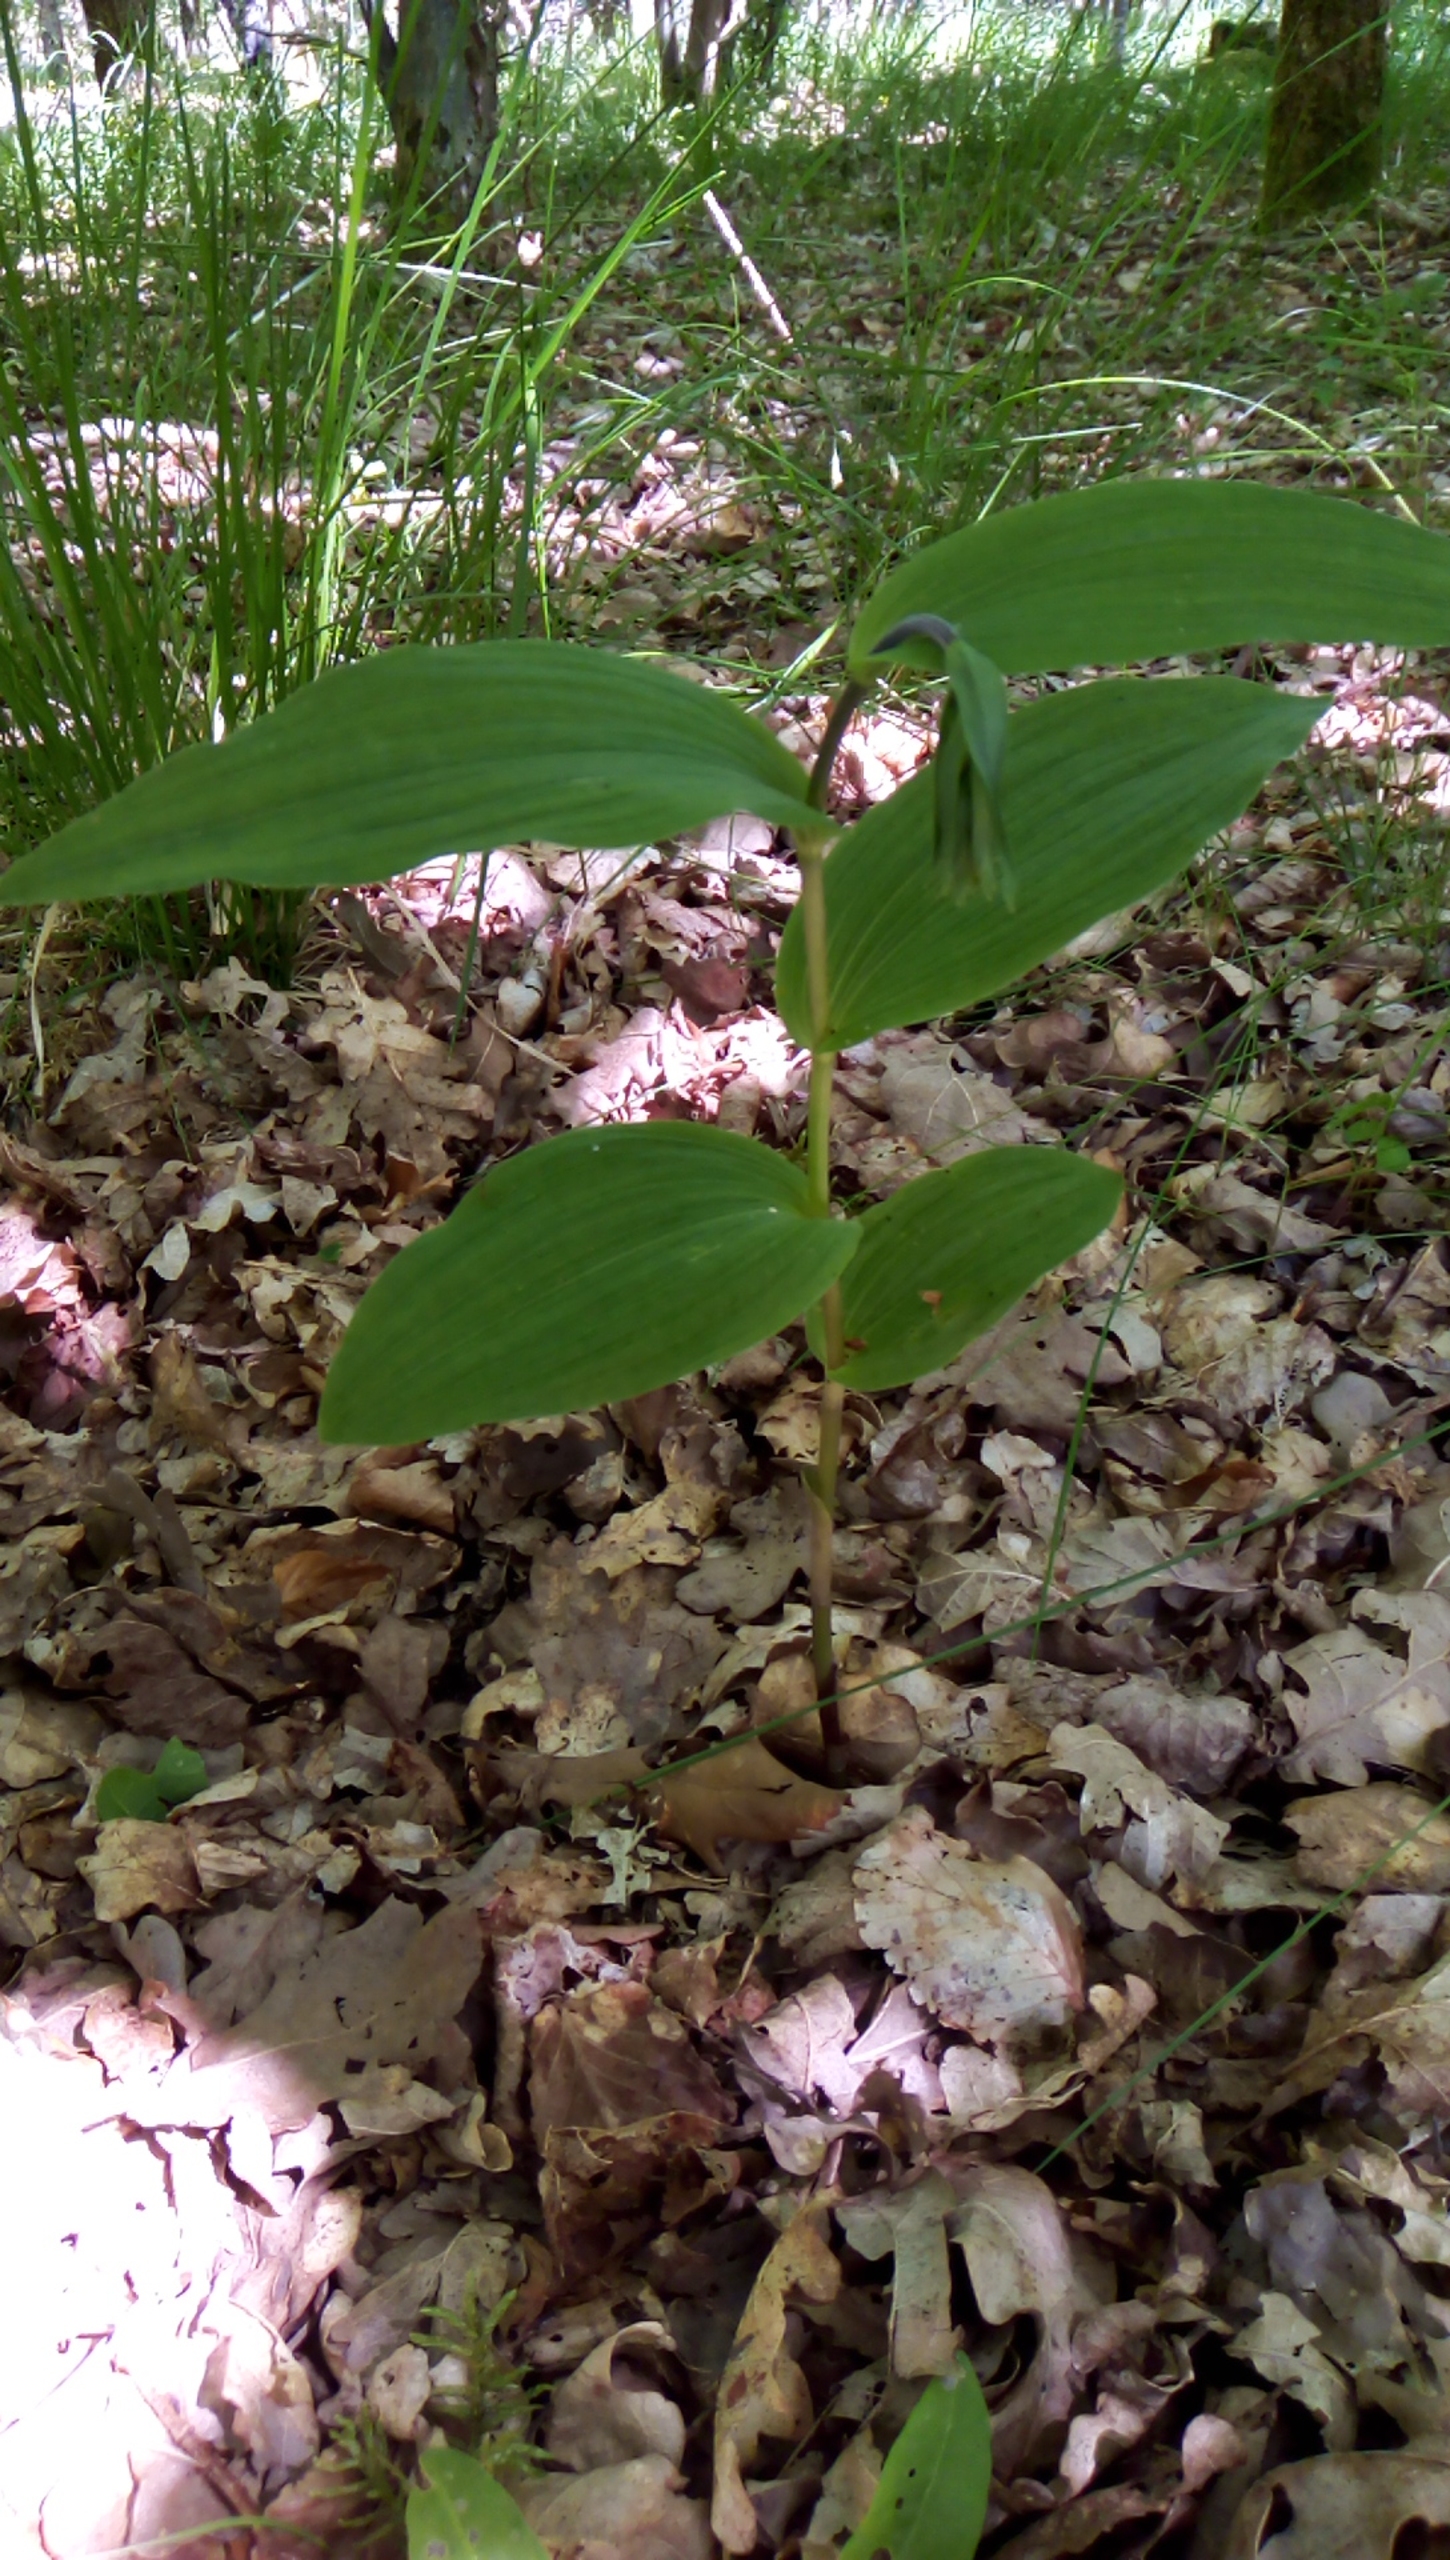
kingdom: Plantae
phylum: Tracheophyta
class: Liliopsida
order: Asparagales
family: Orchidaceae
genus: Epipactis
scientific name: Epipactis helleborine
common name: Skov-hullæbe
